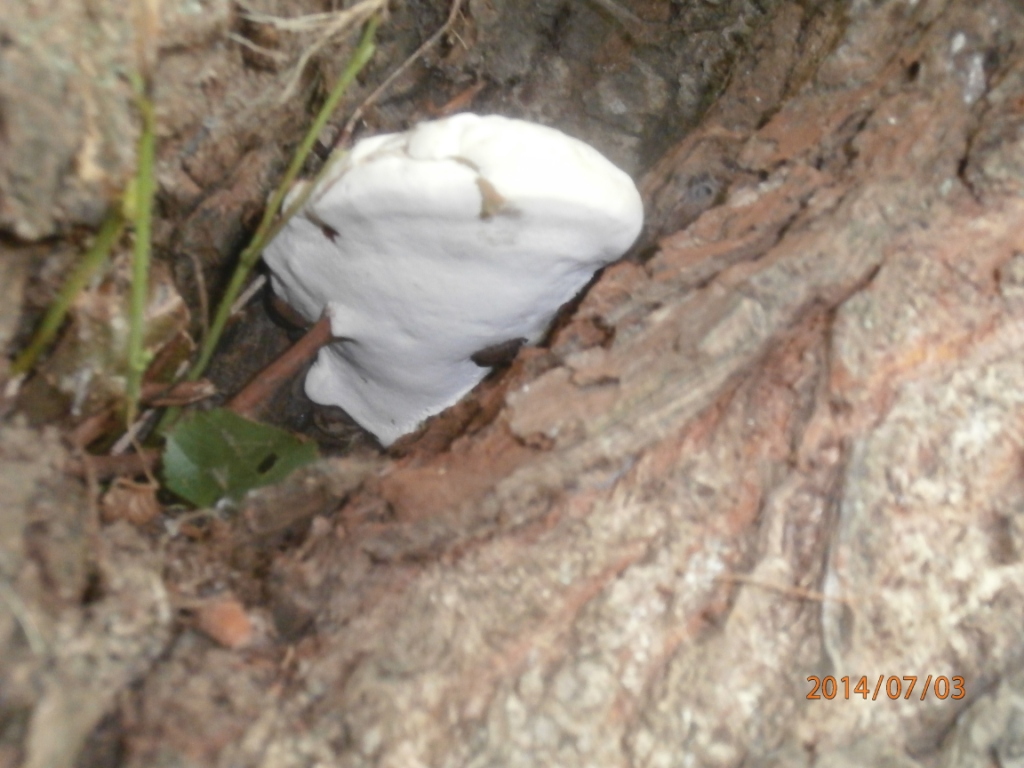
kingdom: Fungi
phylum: Basidiomycota
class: Agaricomycetes
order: Polyporales
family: Polyporaceae
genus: Ganoderma
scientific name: Ganoderma adspersum
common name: grov lakporesvamp
